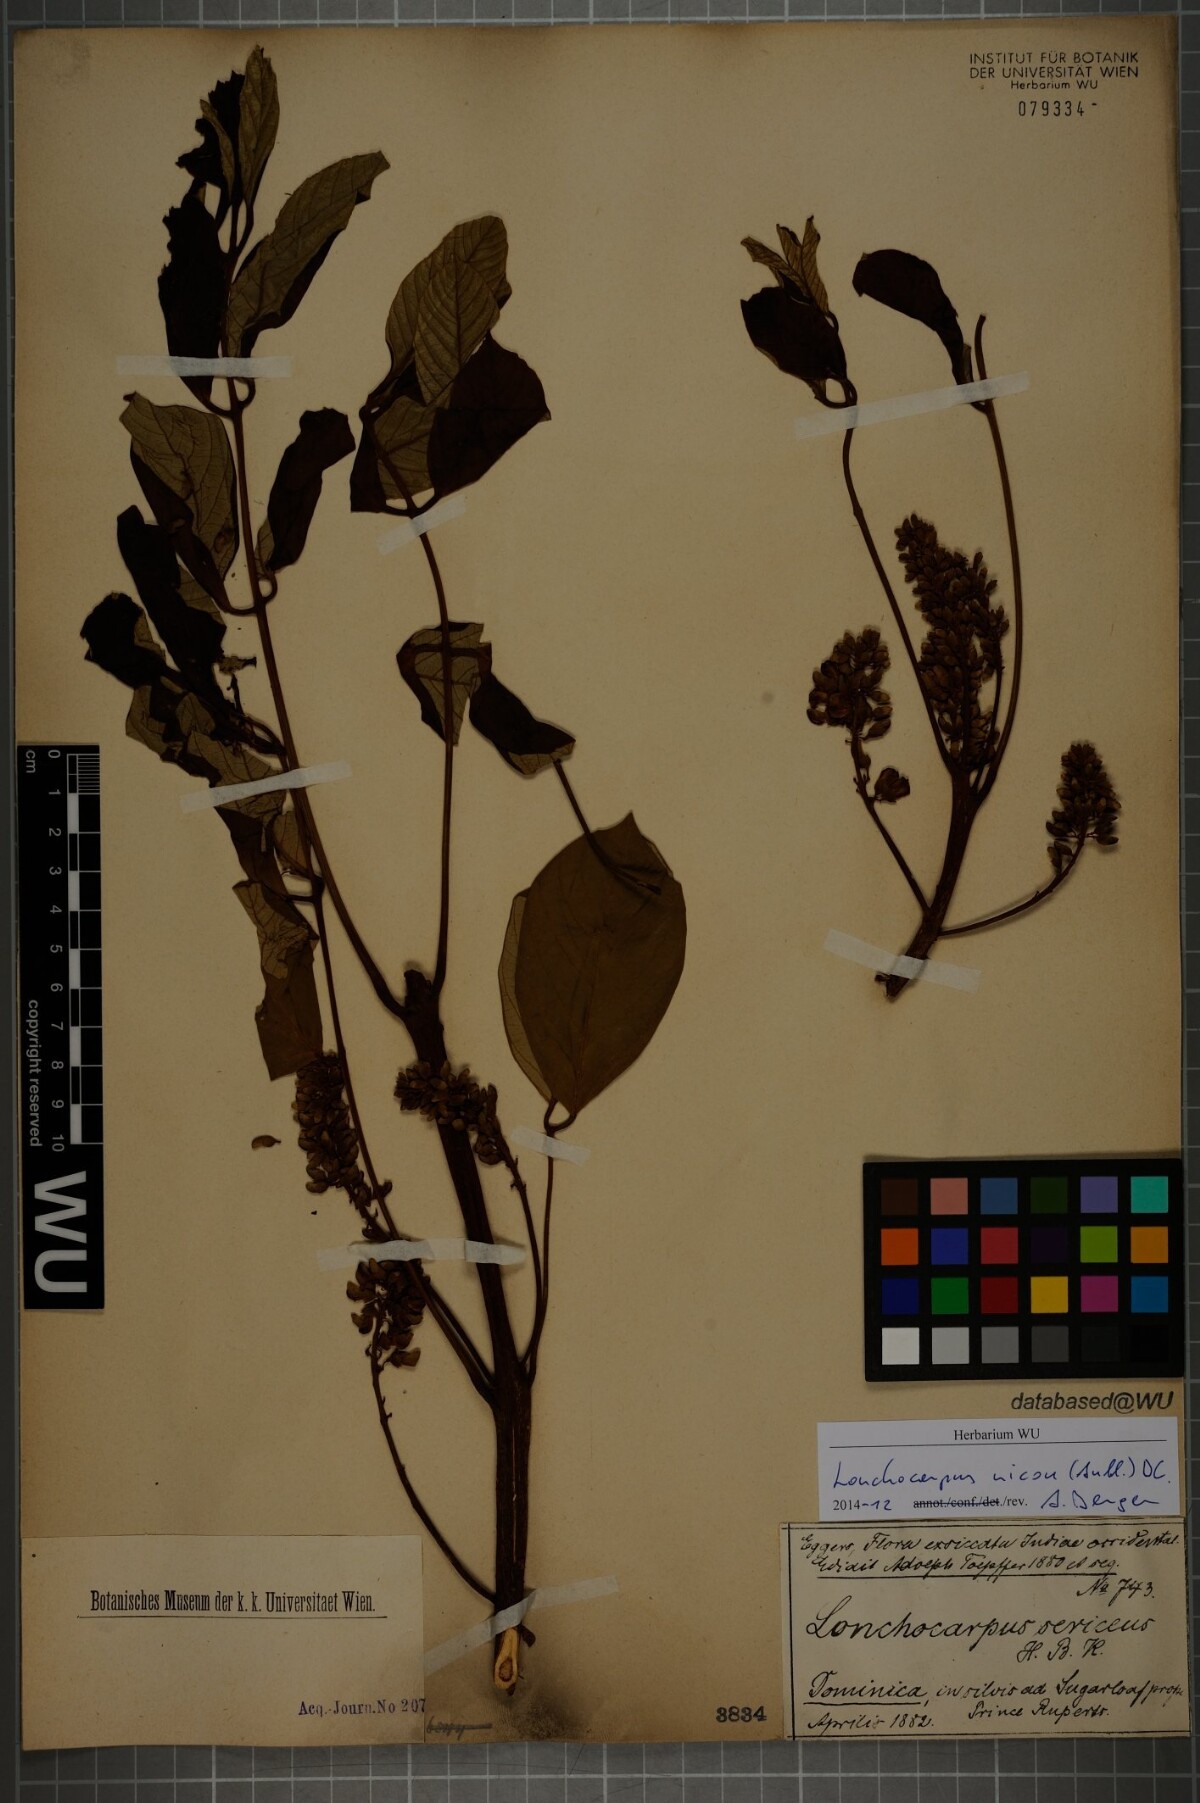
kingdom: Plantae
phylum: Tracheophyta
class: Magnoliopsida
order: Fabales
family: Fabaceae
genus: Lonchocarpus
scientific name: Lonchocarpus heptaphyllus
